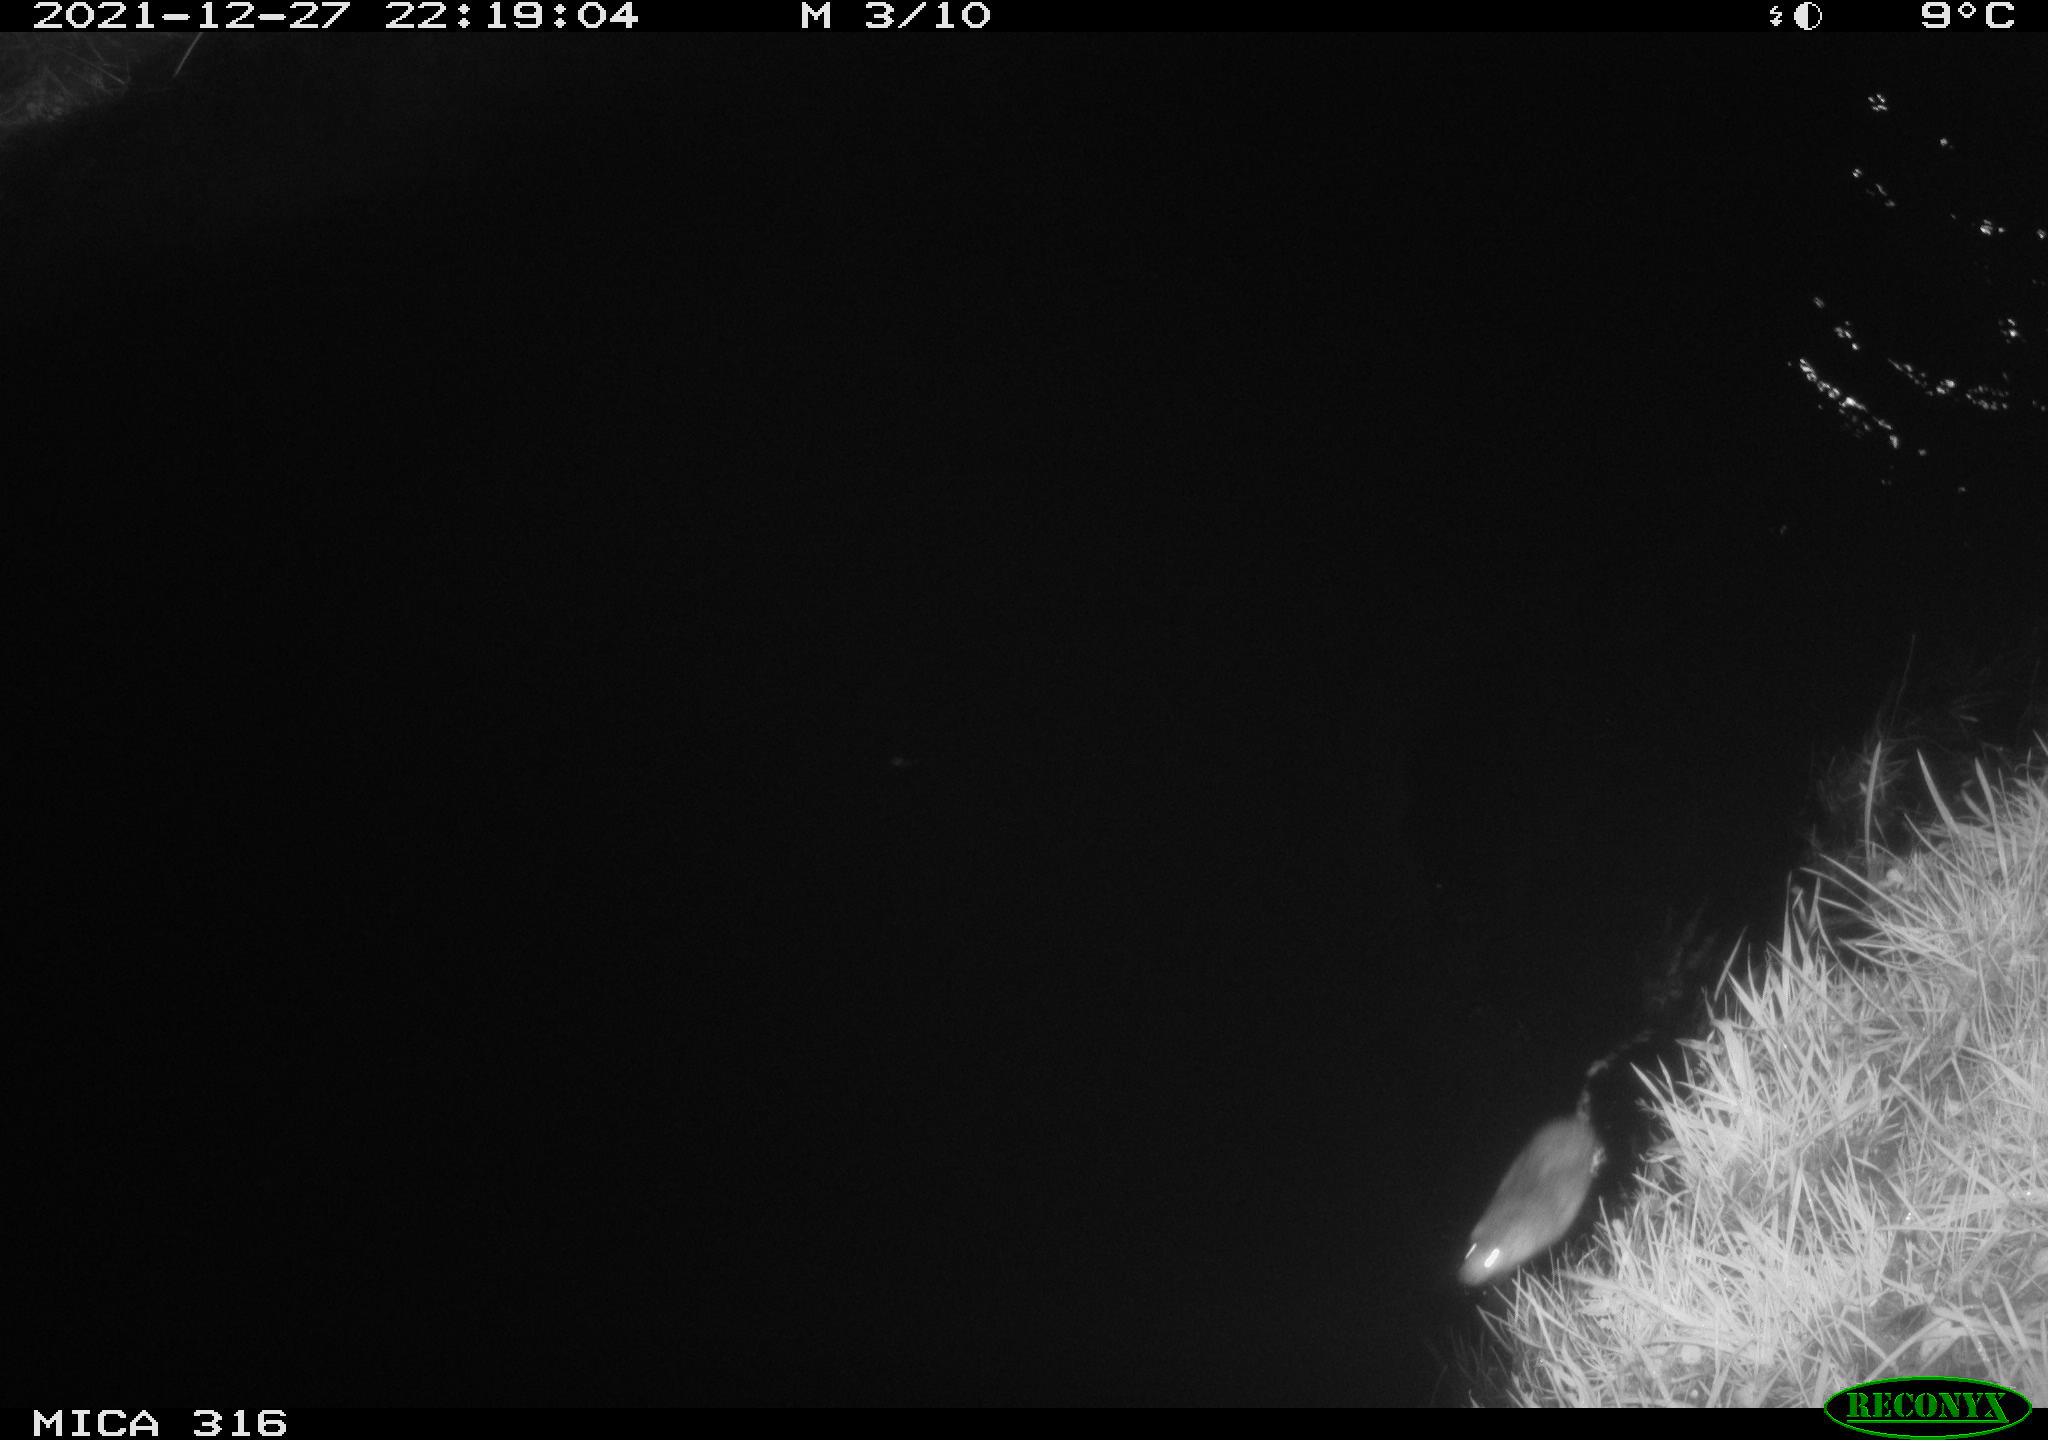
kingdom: Animalia
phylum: Chordata
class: Mammalia
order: Rodentia
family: Muridae
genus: Rattus
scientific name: Rattus norvegicus
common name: Brown rat
